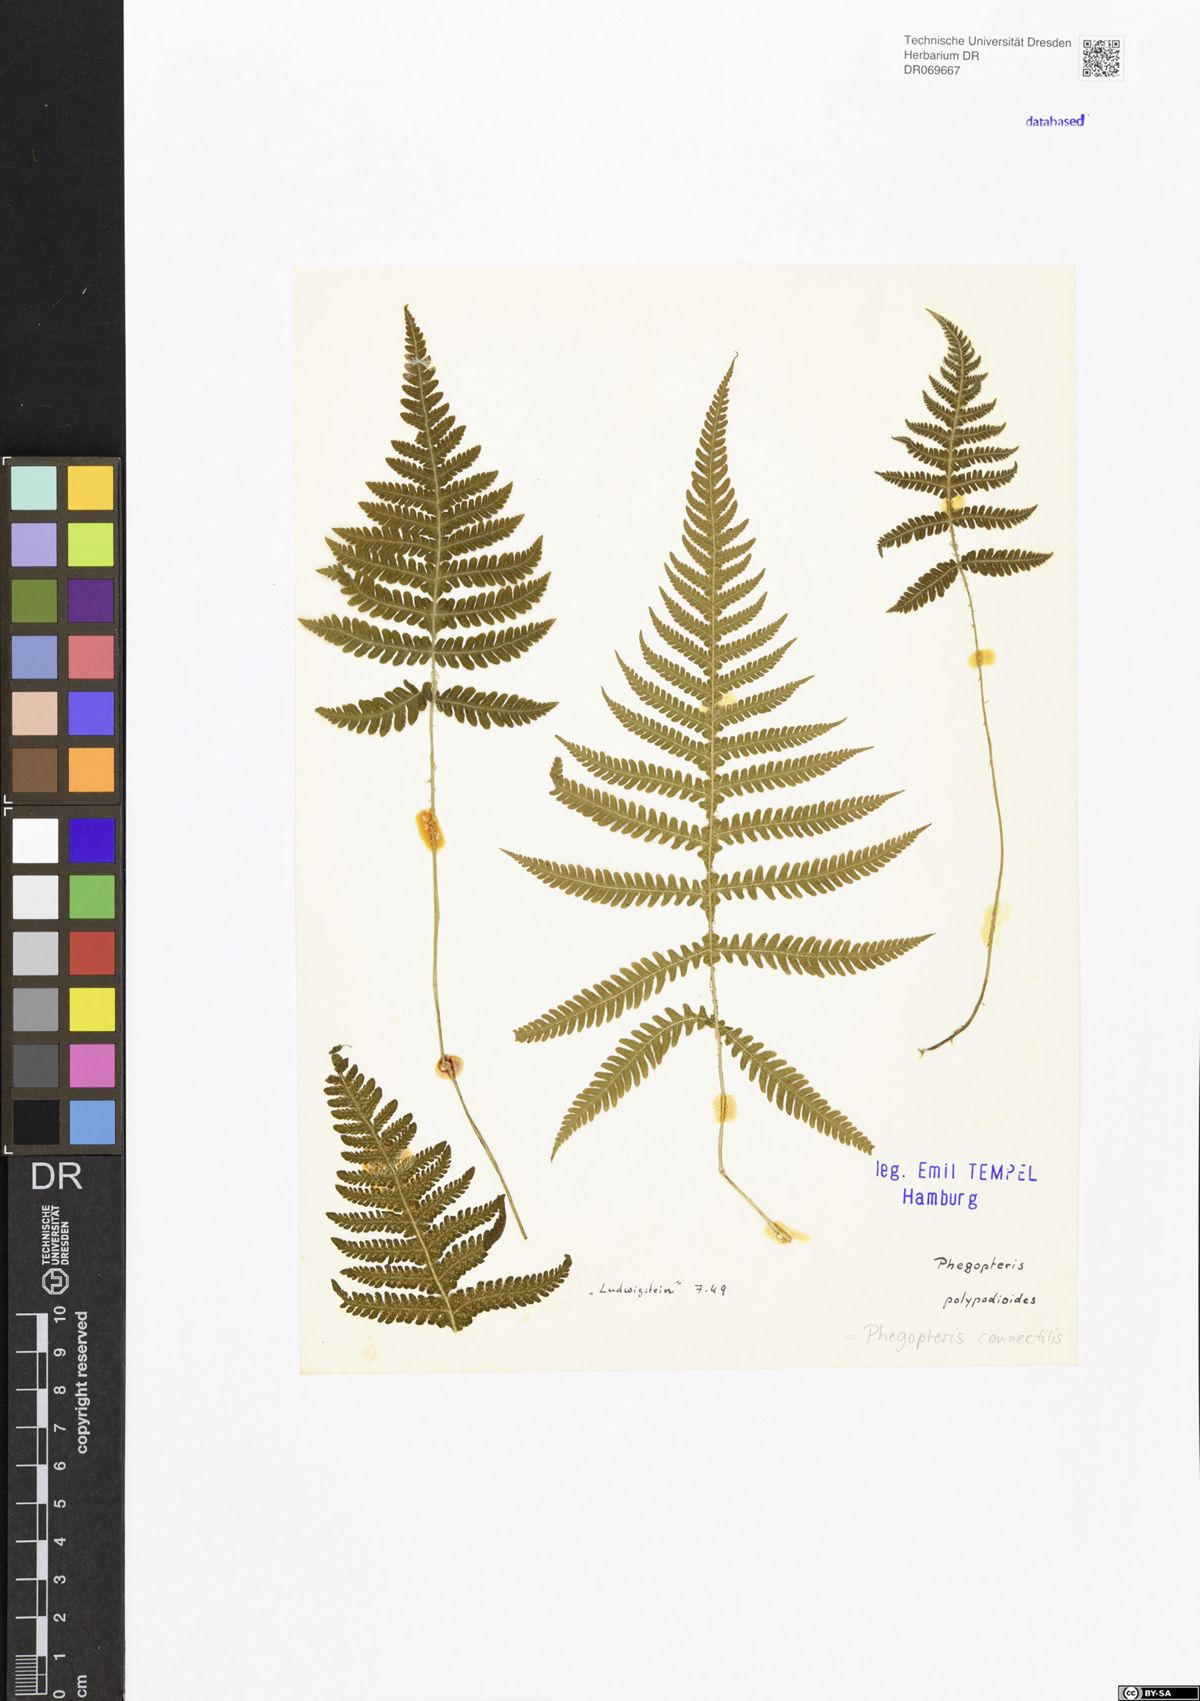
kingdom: Plantae
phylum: Tracheophyta
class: Polypodiopsida
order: Polypodiales
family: Thelypteridaceae
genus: Phegopteris
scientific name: Phegopteris connectilis
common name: Beech fern
